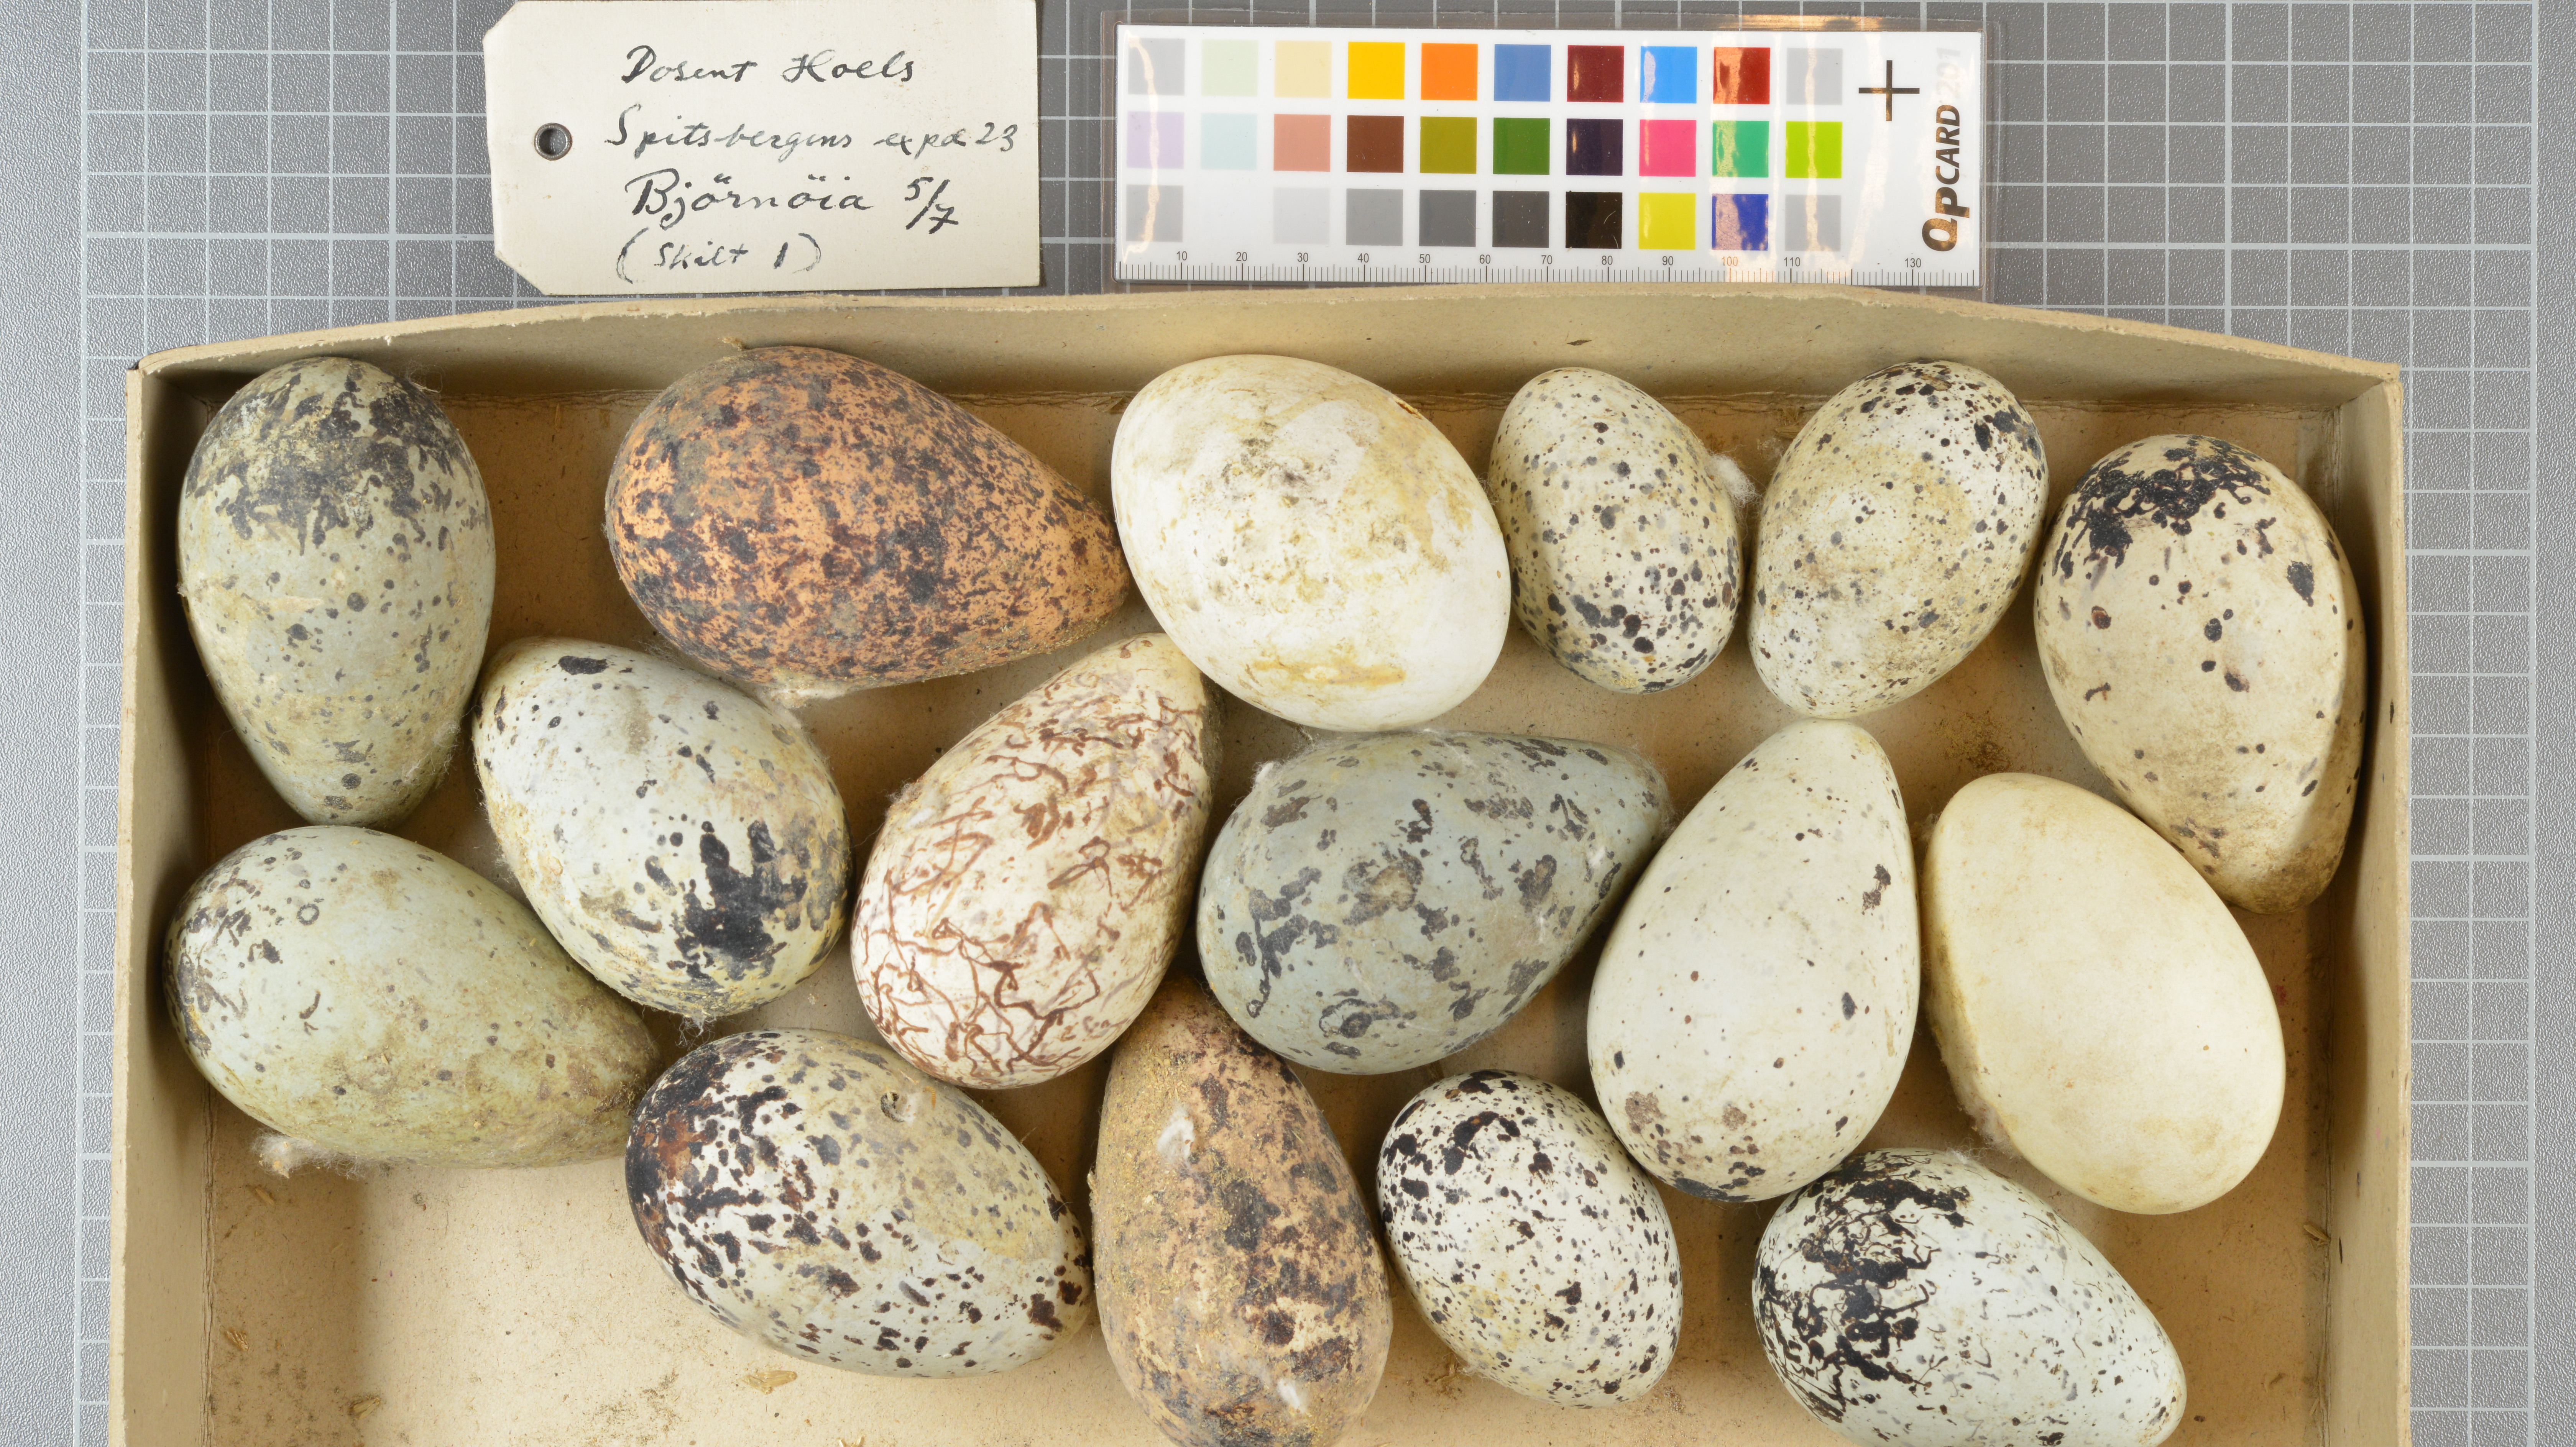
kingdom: Animalia
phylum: Chordata
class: Aves
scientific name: Aves
